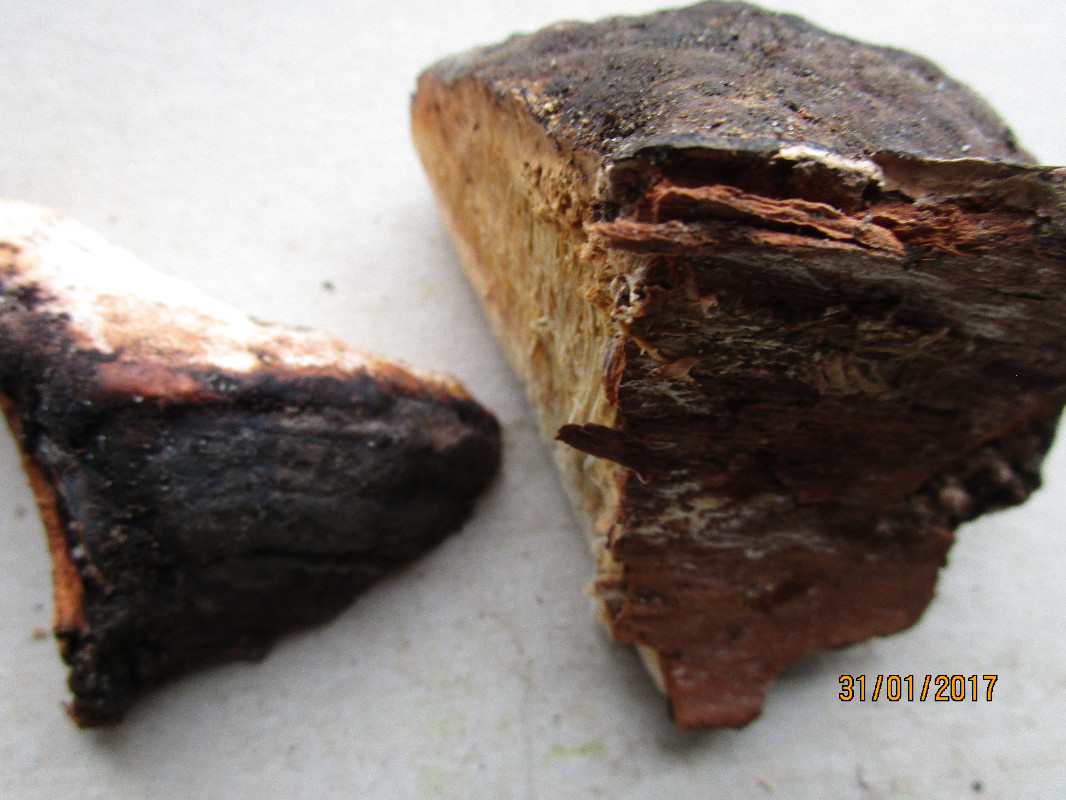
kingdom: Fungi
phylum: Basidiomycota
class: Agaricomycetes
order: Polyporales
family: Fomitopsidaceae
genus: Fomitopsis
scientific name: Fomitopsis pinicola
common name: randbæltet hovporesvamp
